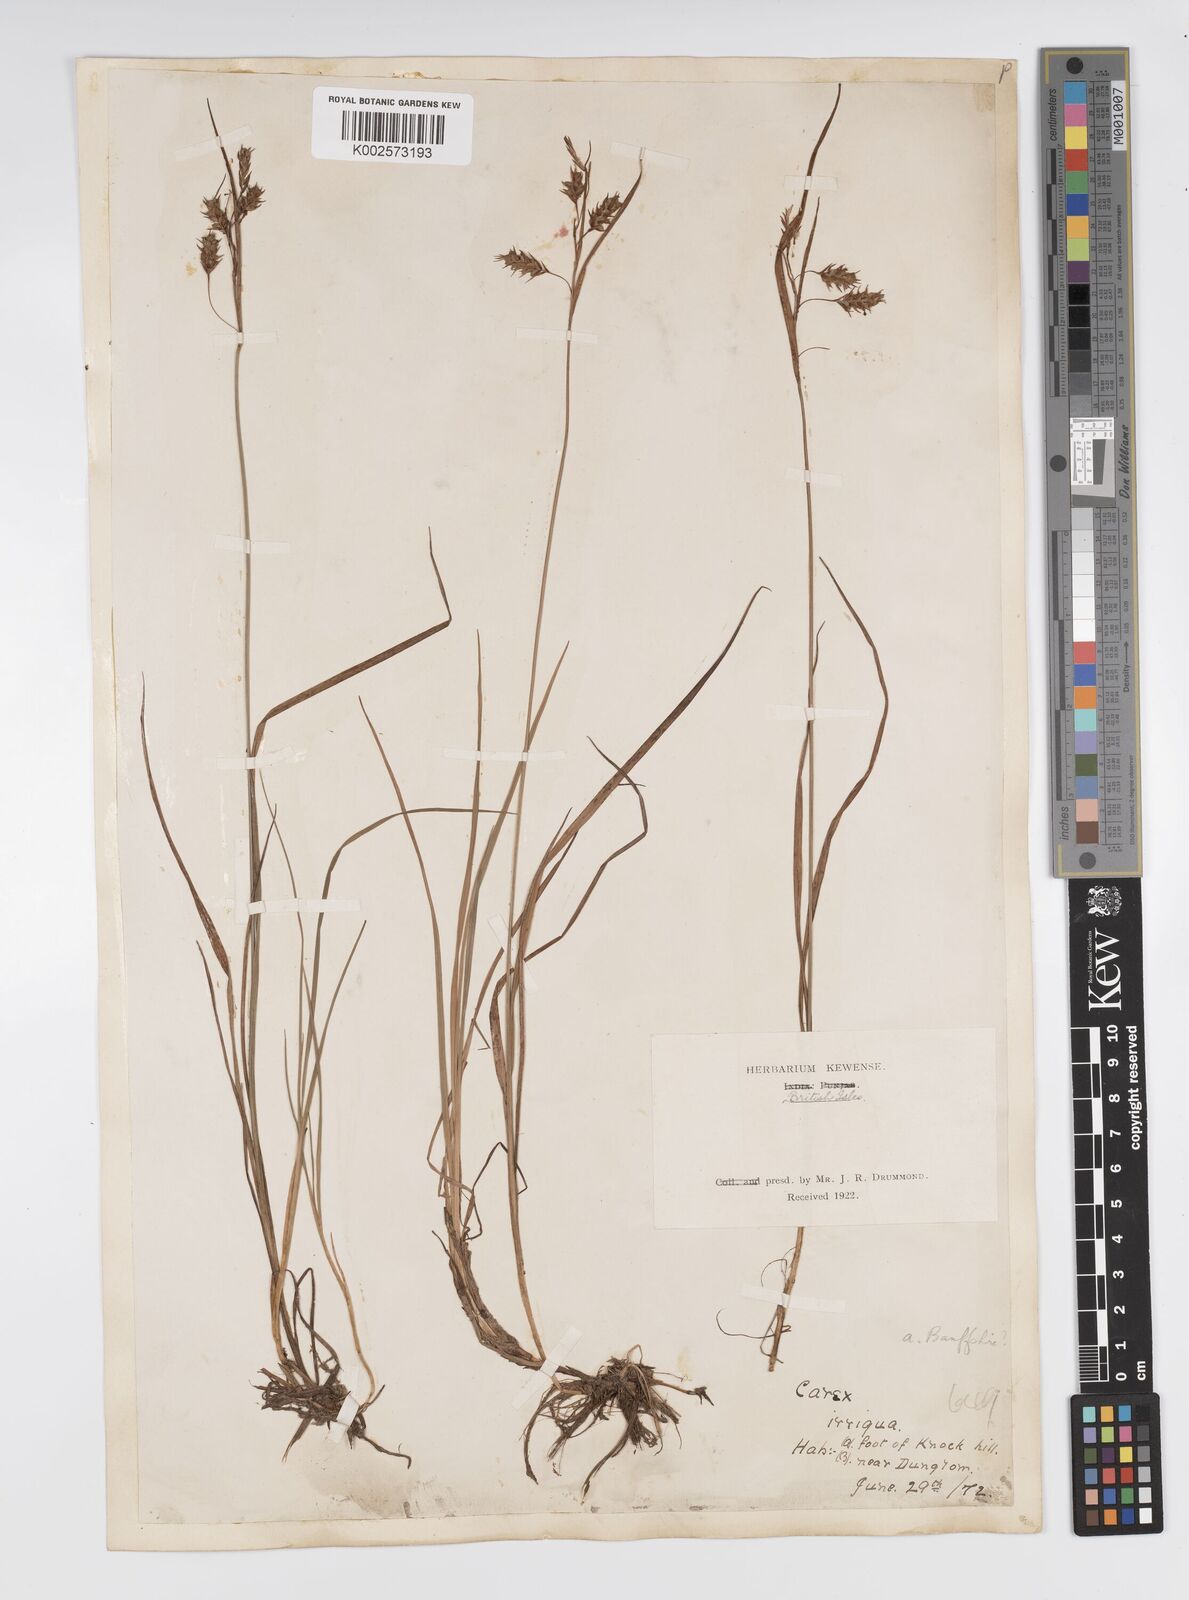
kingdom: Plantae
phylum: Tracheophyta
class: Liliopsida
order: Poales
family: Cyperaceae
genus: Carex
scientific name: Carex magellanica
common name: Bog sedge
